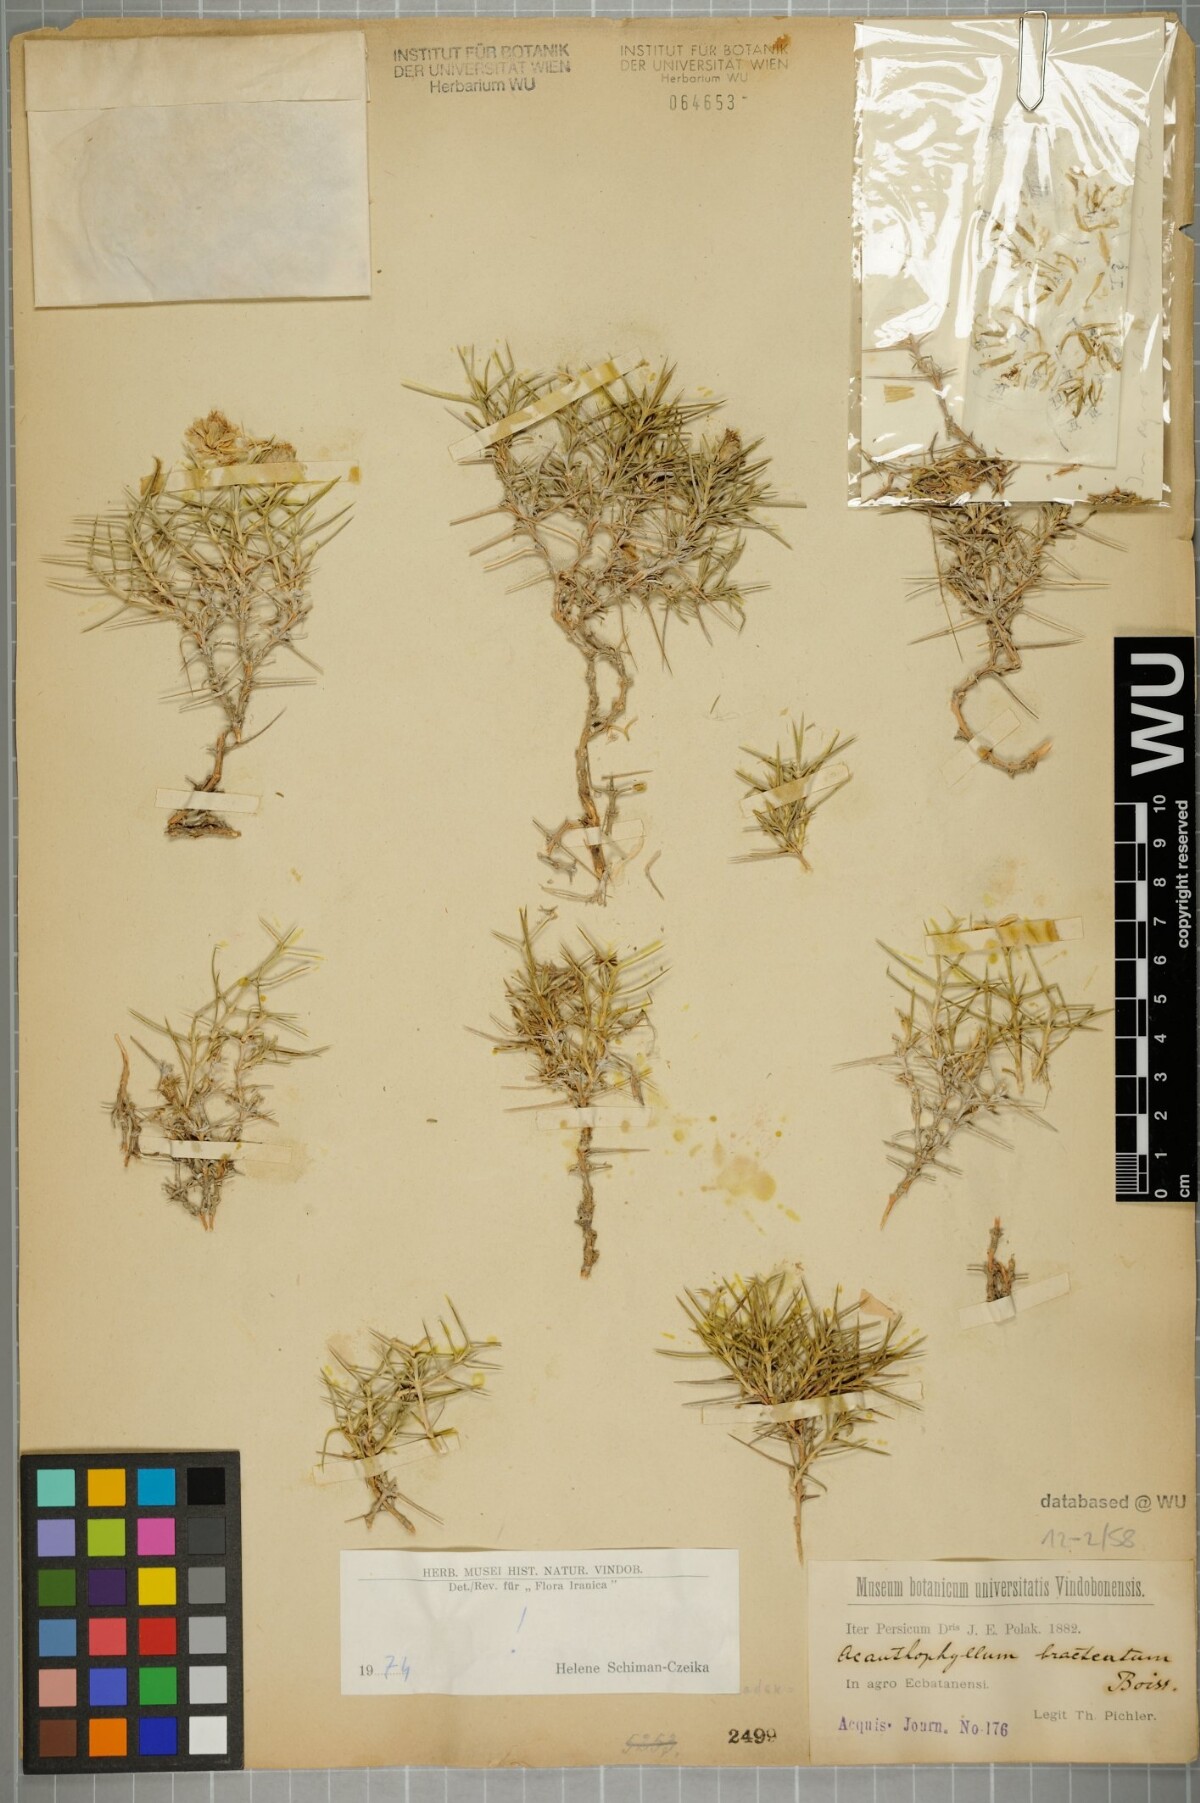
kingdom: Plantae
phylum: Tracheophyta
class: Magnoliopsida
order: Caryophyllales
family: Caryophyllaceae
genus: Acanthophyllum
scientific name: Acanthophyllum bracteatum
